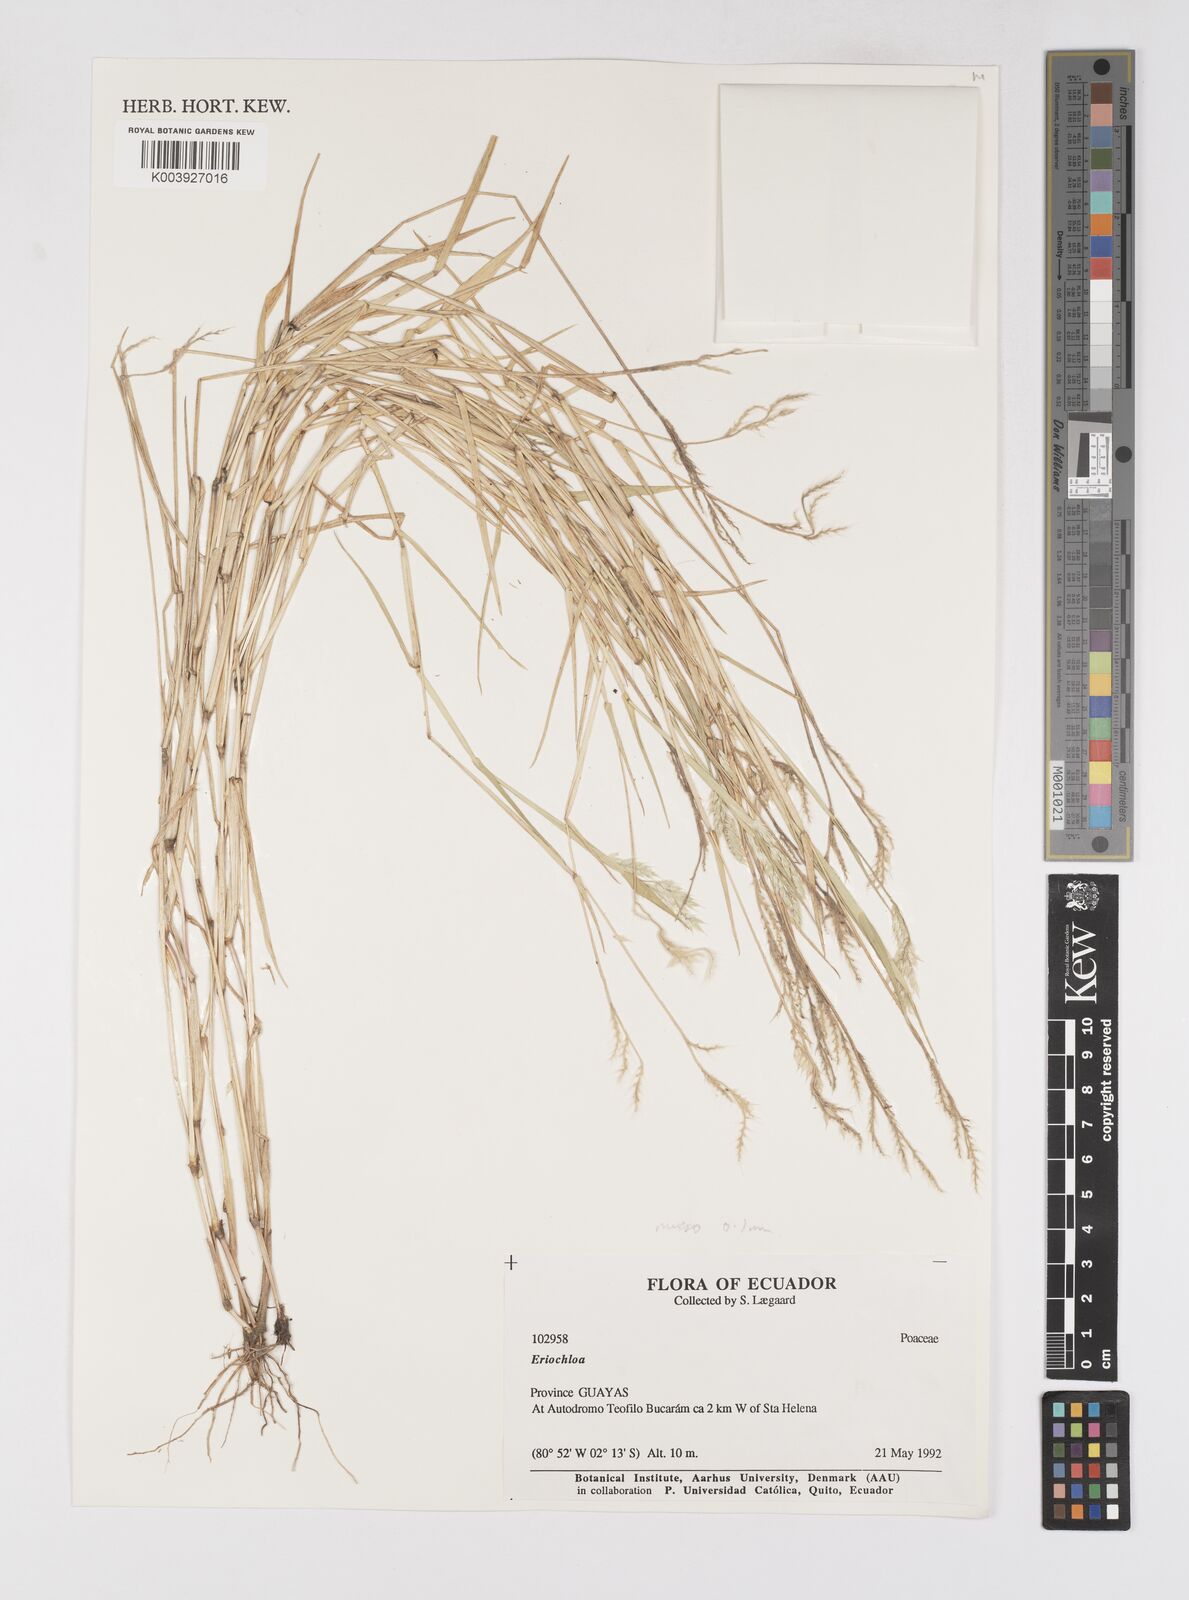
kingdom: Plantae
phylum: Tracheophyta
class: Liliopsida
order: Poales
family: Poaceae
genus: Eriochloa
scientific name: Eriochloa pacifica
